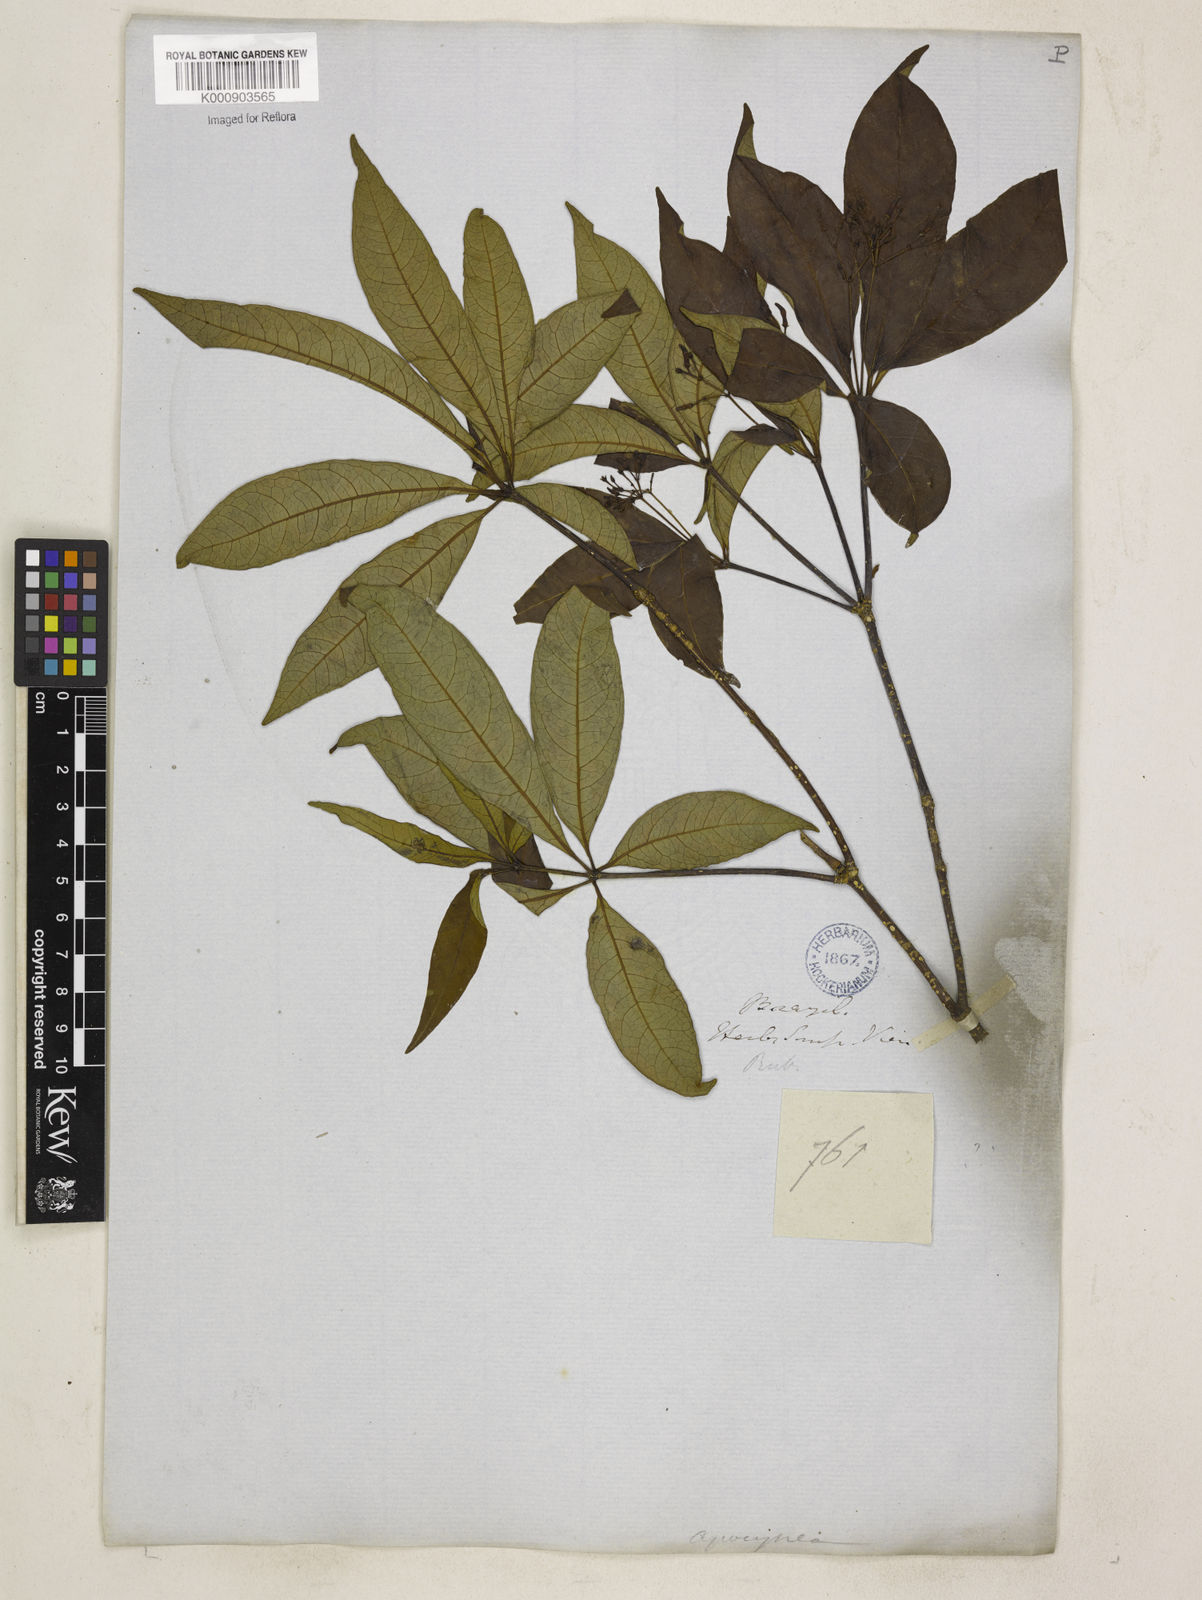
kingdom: Plantae
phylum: Tracheophyta
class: Magnoliopsida
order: Gentianales
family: Apocynaceae
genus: Rauvolfia
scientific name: Rauvolfia polyphylla
